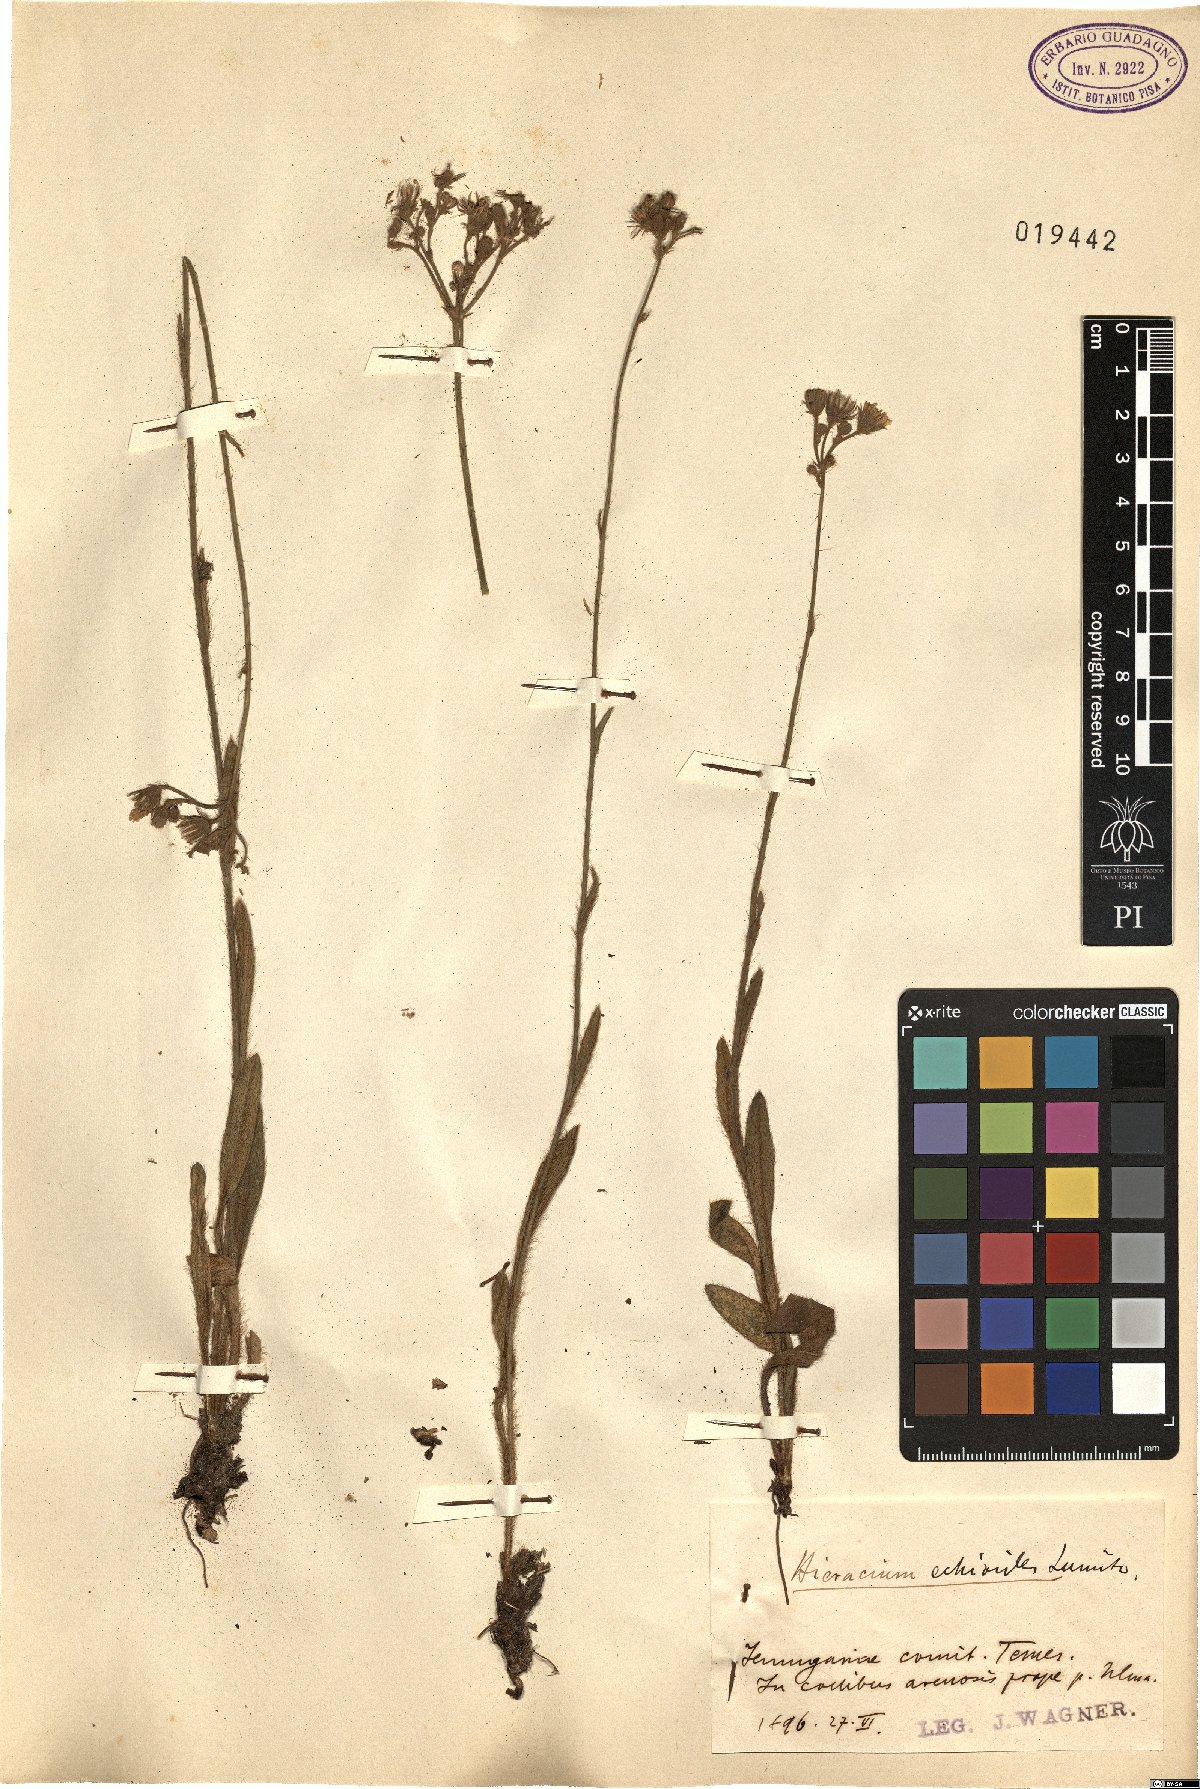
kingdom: Plantae
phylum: Tracheophyta
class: Magnoliopsida
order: Asterales
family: Asteraceae
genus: Pilosella
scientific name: Pilosella echioides
